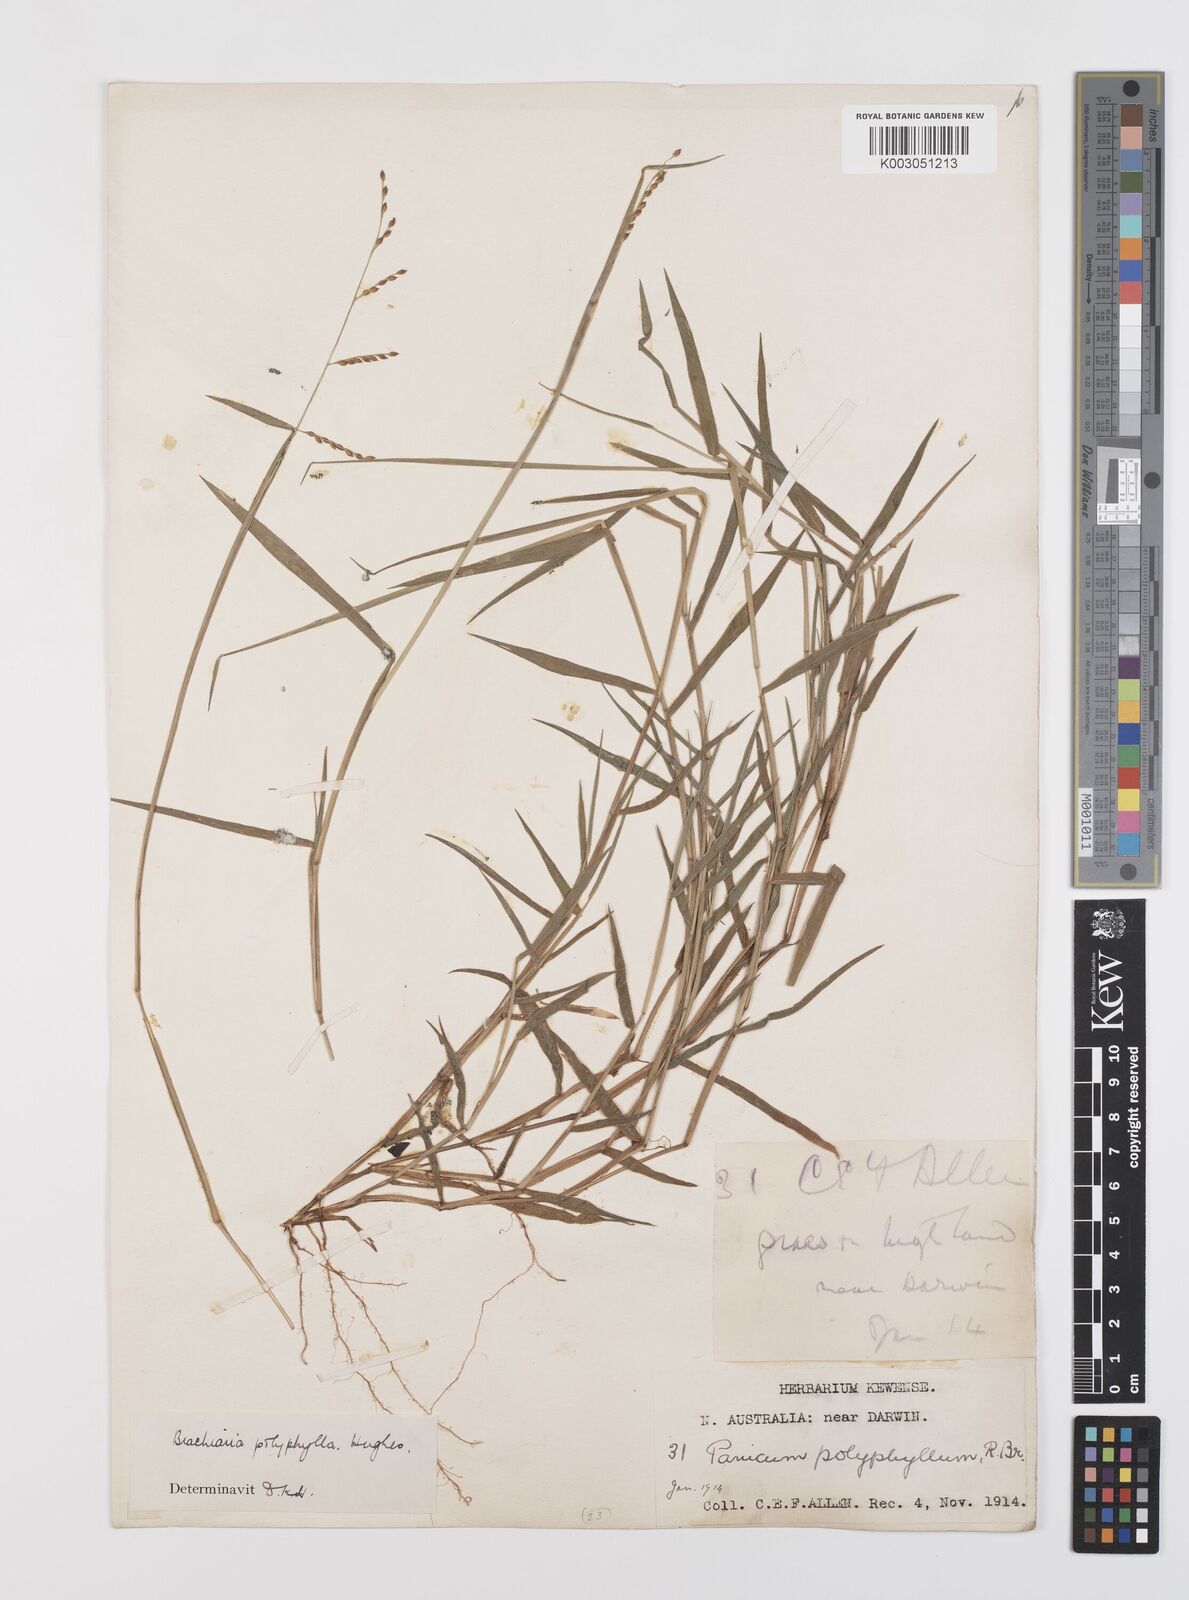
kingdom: Plantae
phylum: Tracheophyta
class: Liliopsida
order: Poales
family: Poaceae
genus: Urochloa
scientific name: Urochloa polyphylla
